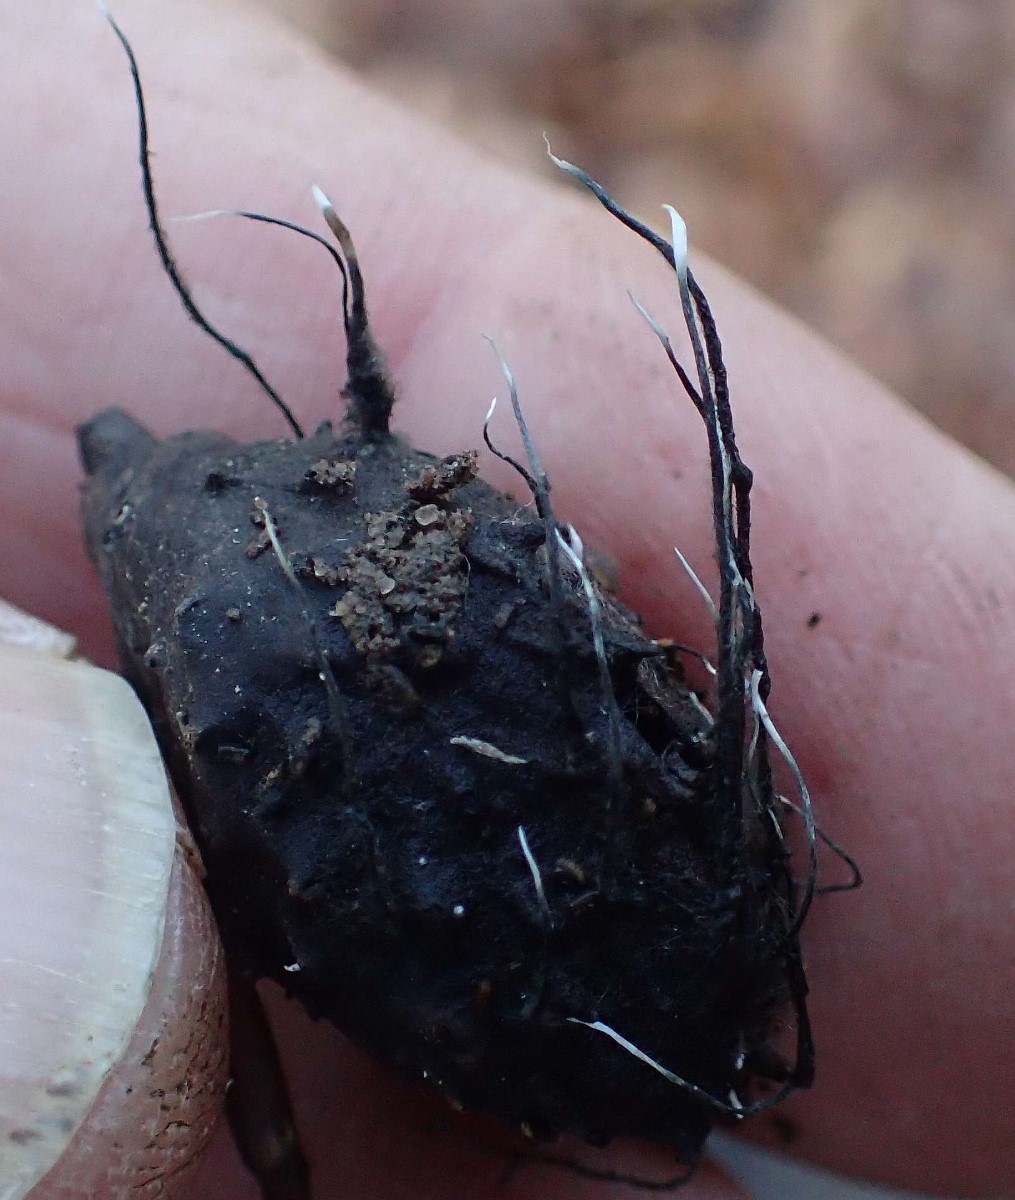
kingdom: Fungi
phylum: Ascomycota
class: Sordariomycetes
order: Xylariales
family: Xylariaceae
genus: Xylaria
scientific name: Xylaria carpophila
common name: bogskål-stødsvamp
